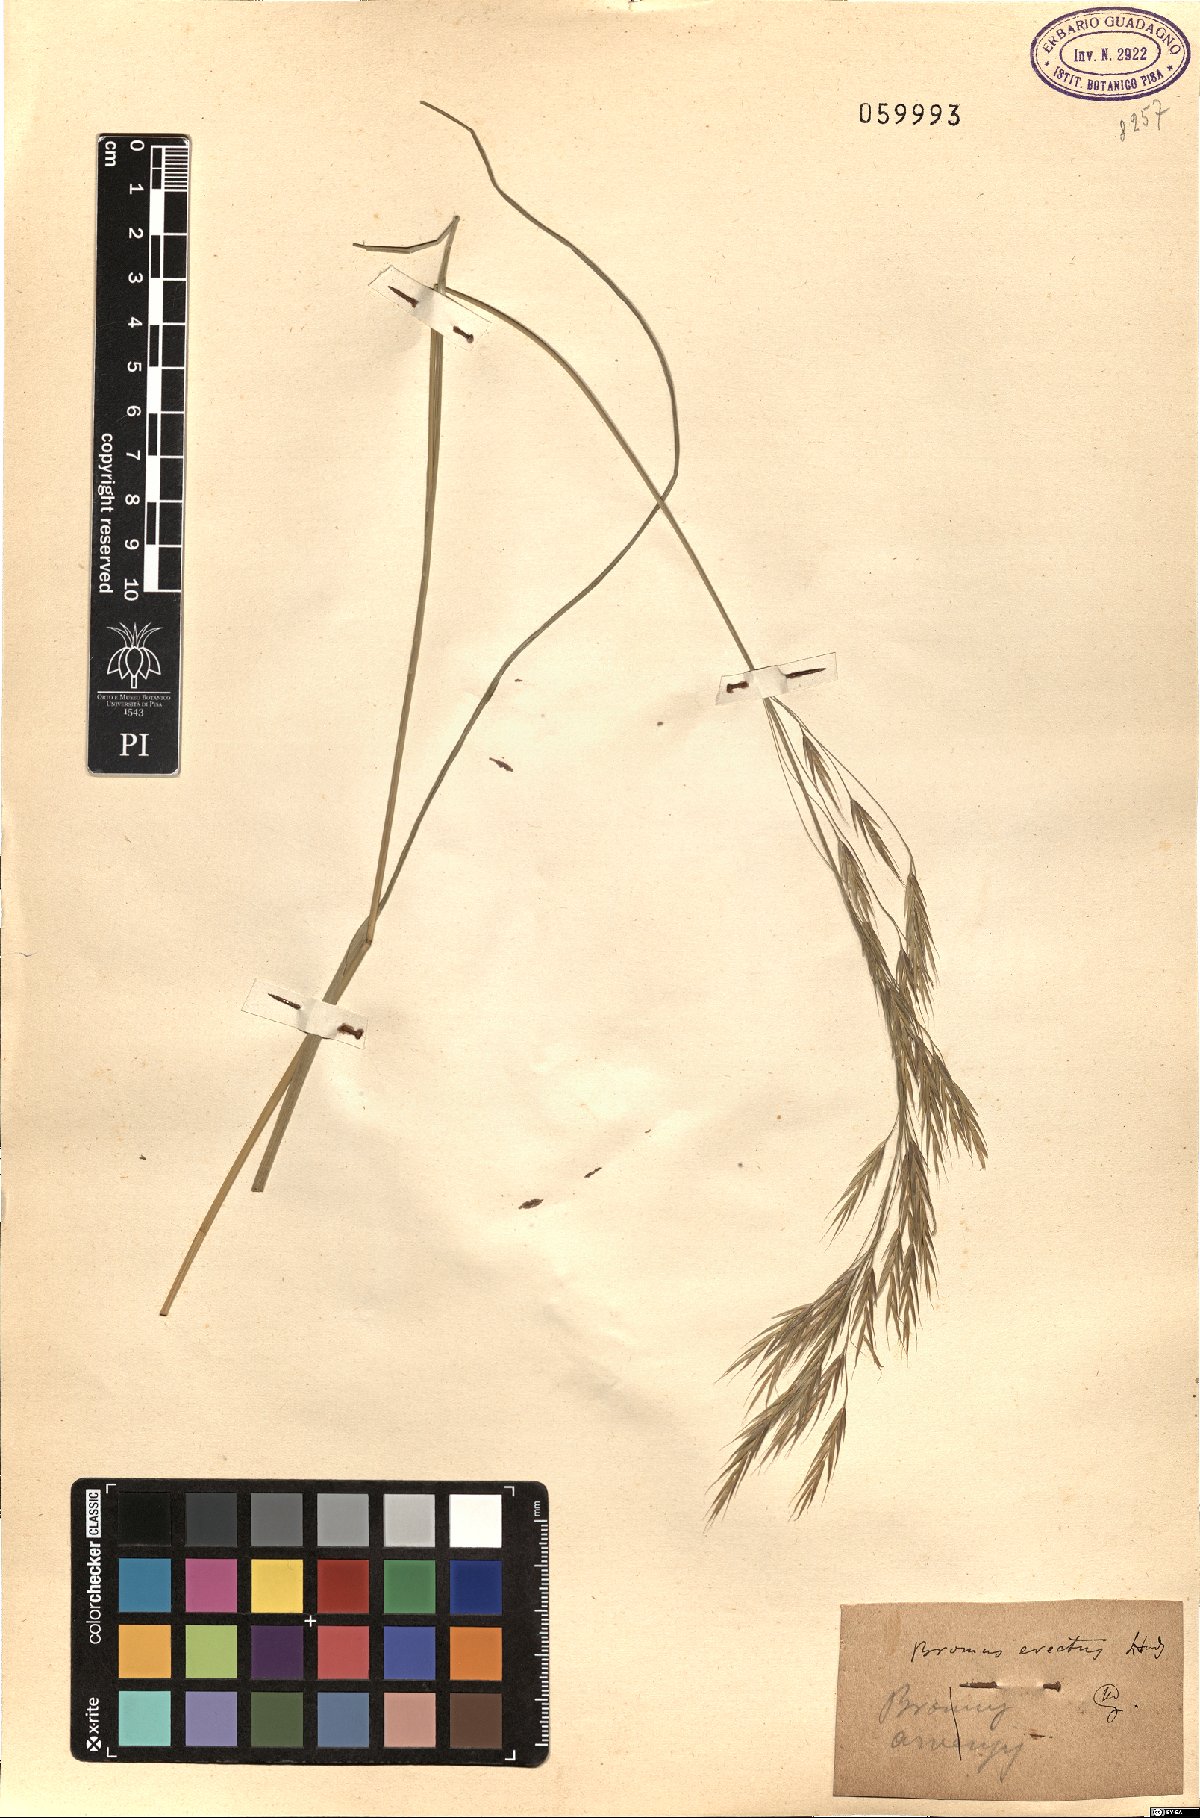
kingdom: Plantae
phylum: Tracheophyta
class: Liliopsida
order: Poales
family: Poaceae
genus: Bromus
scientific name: Bromus erectus
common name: Erect brome
